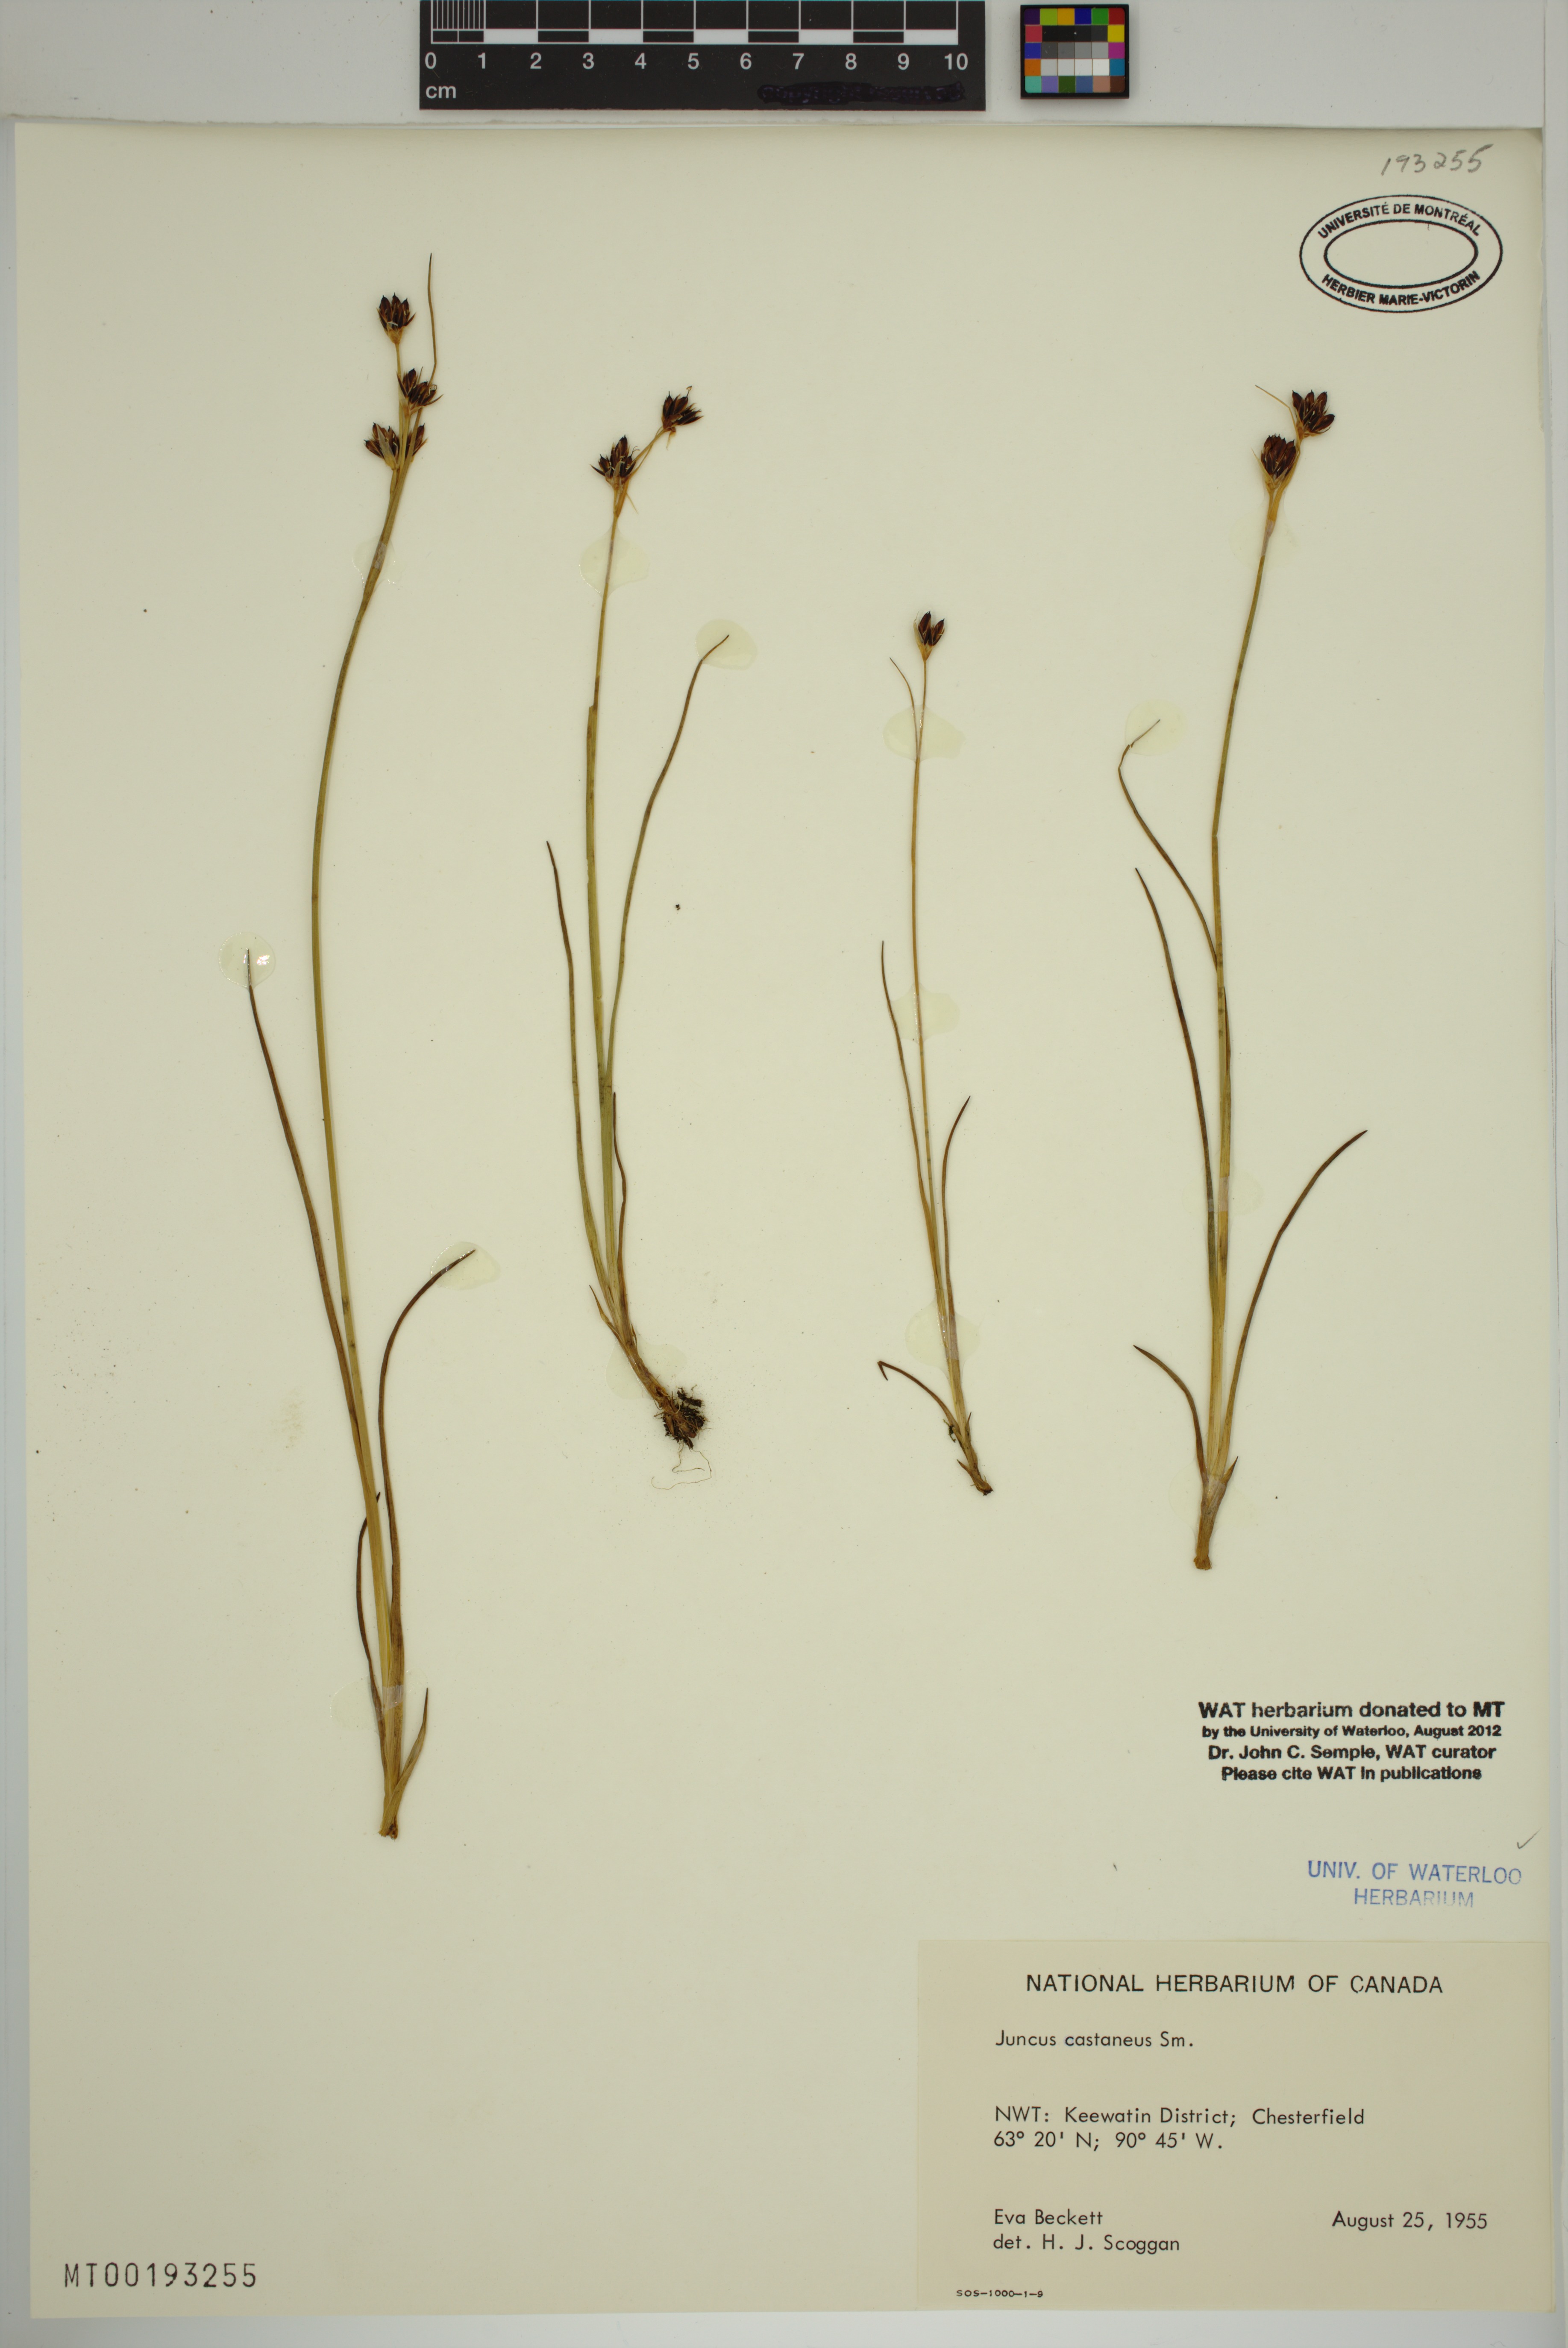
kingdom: Plantae
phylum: Tracheophyta
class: Liliopsida
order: Poales
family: Juncaceae
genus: Juncus
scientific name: Juncus castaneus
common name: Chestnut rush
